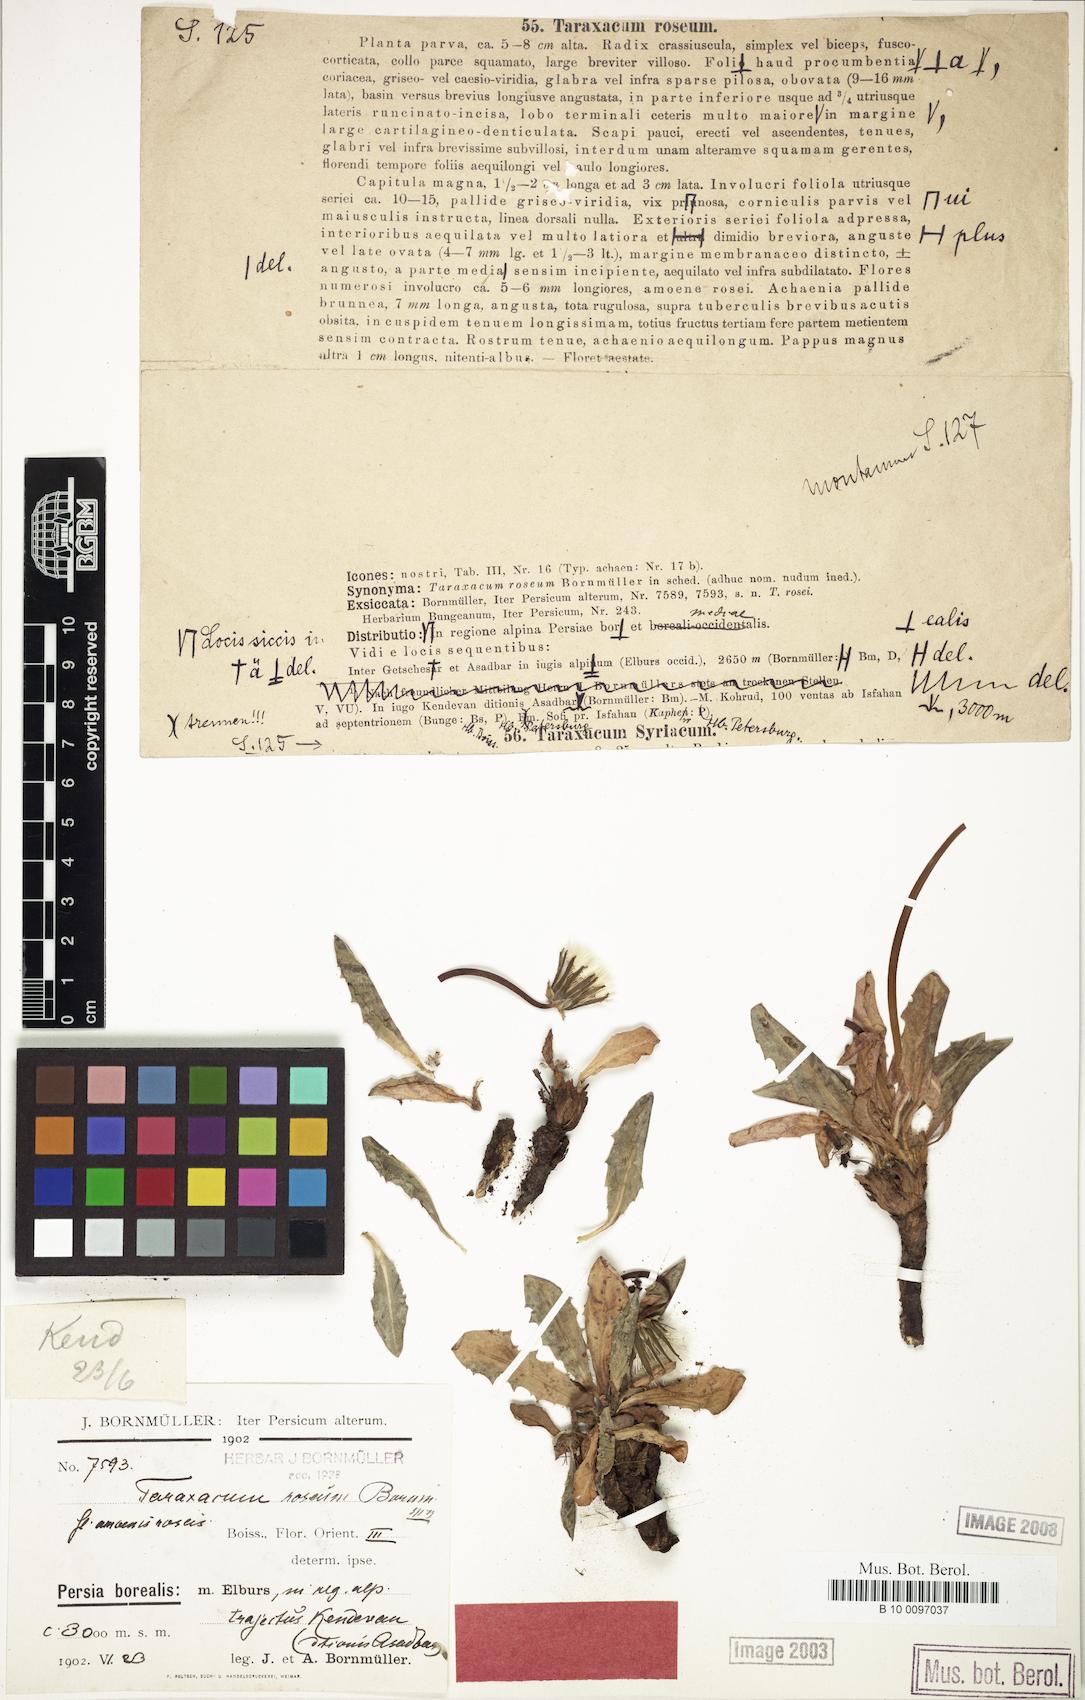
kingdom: Plantae
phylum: Tracheophyta
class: Magnoliopsida
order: Asterales
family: Asteraceae
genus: Taraxacum
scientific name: Taraxacum roseum
